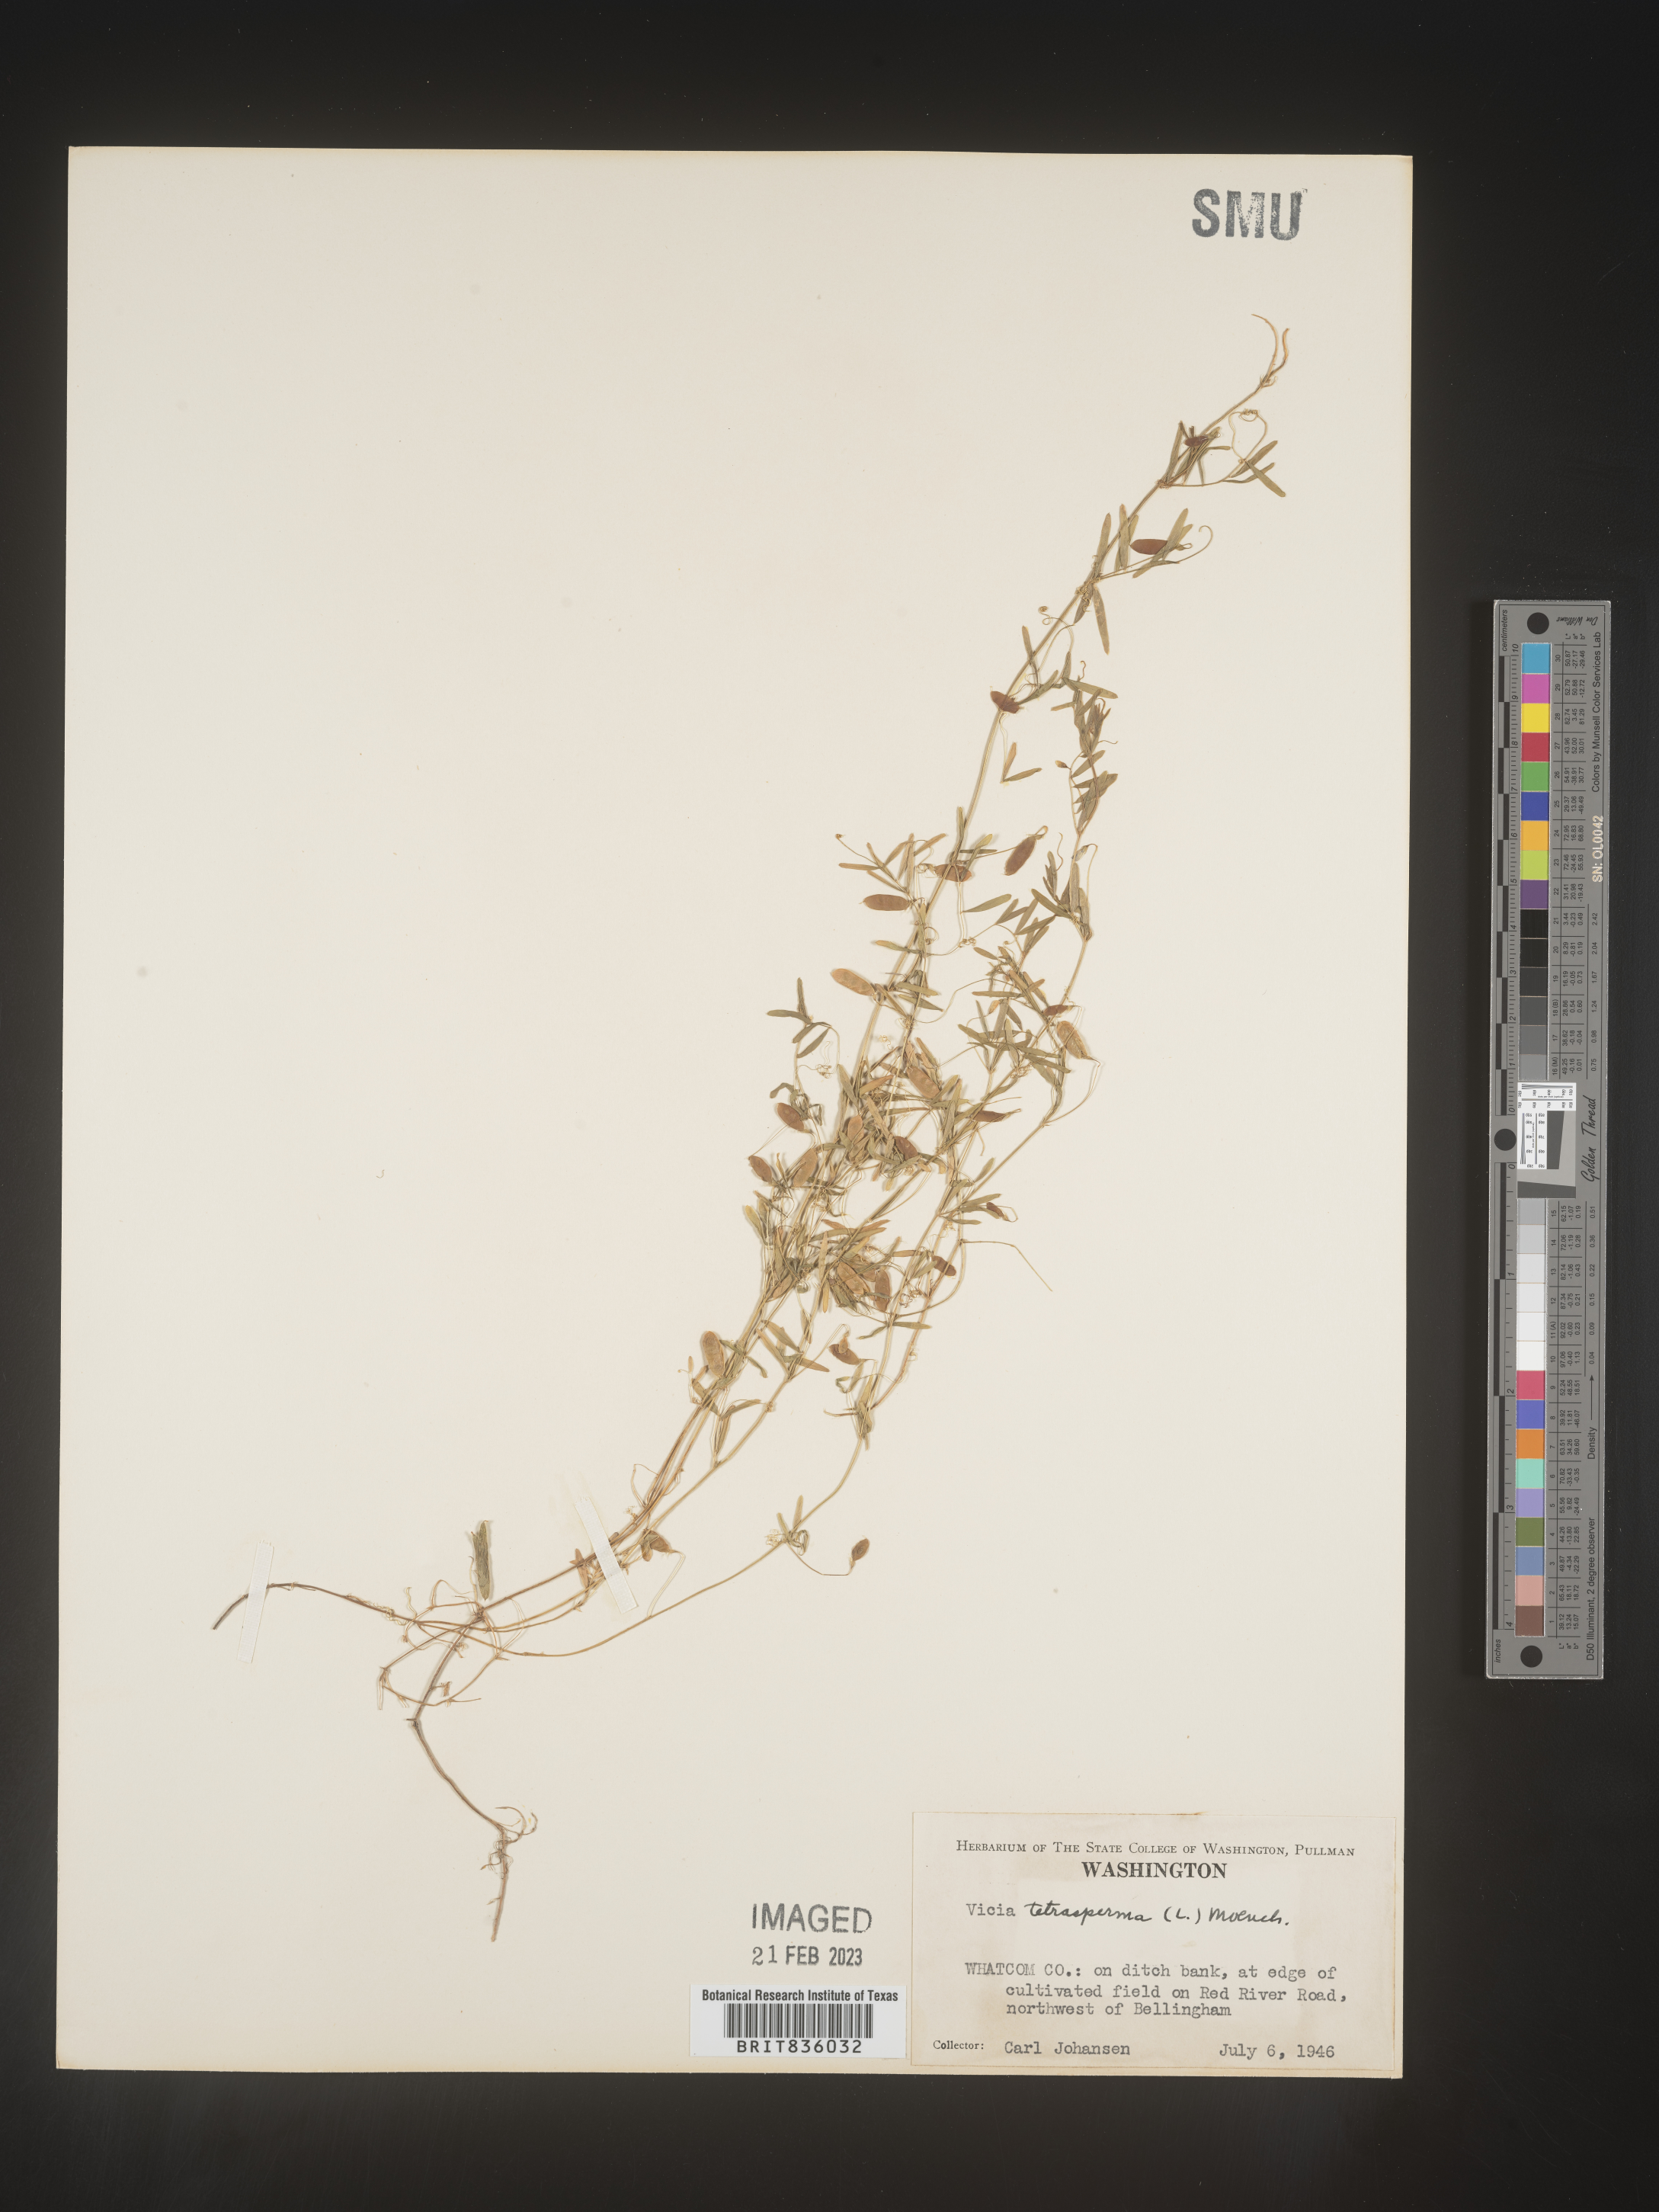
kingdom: Plantae
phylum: Tracheophyta
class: Magnoliopsida
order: Fabales
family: Fabaceae
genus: Vicia
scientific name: Vicia tetrasperma
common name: Smooth tare
